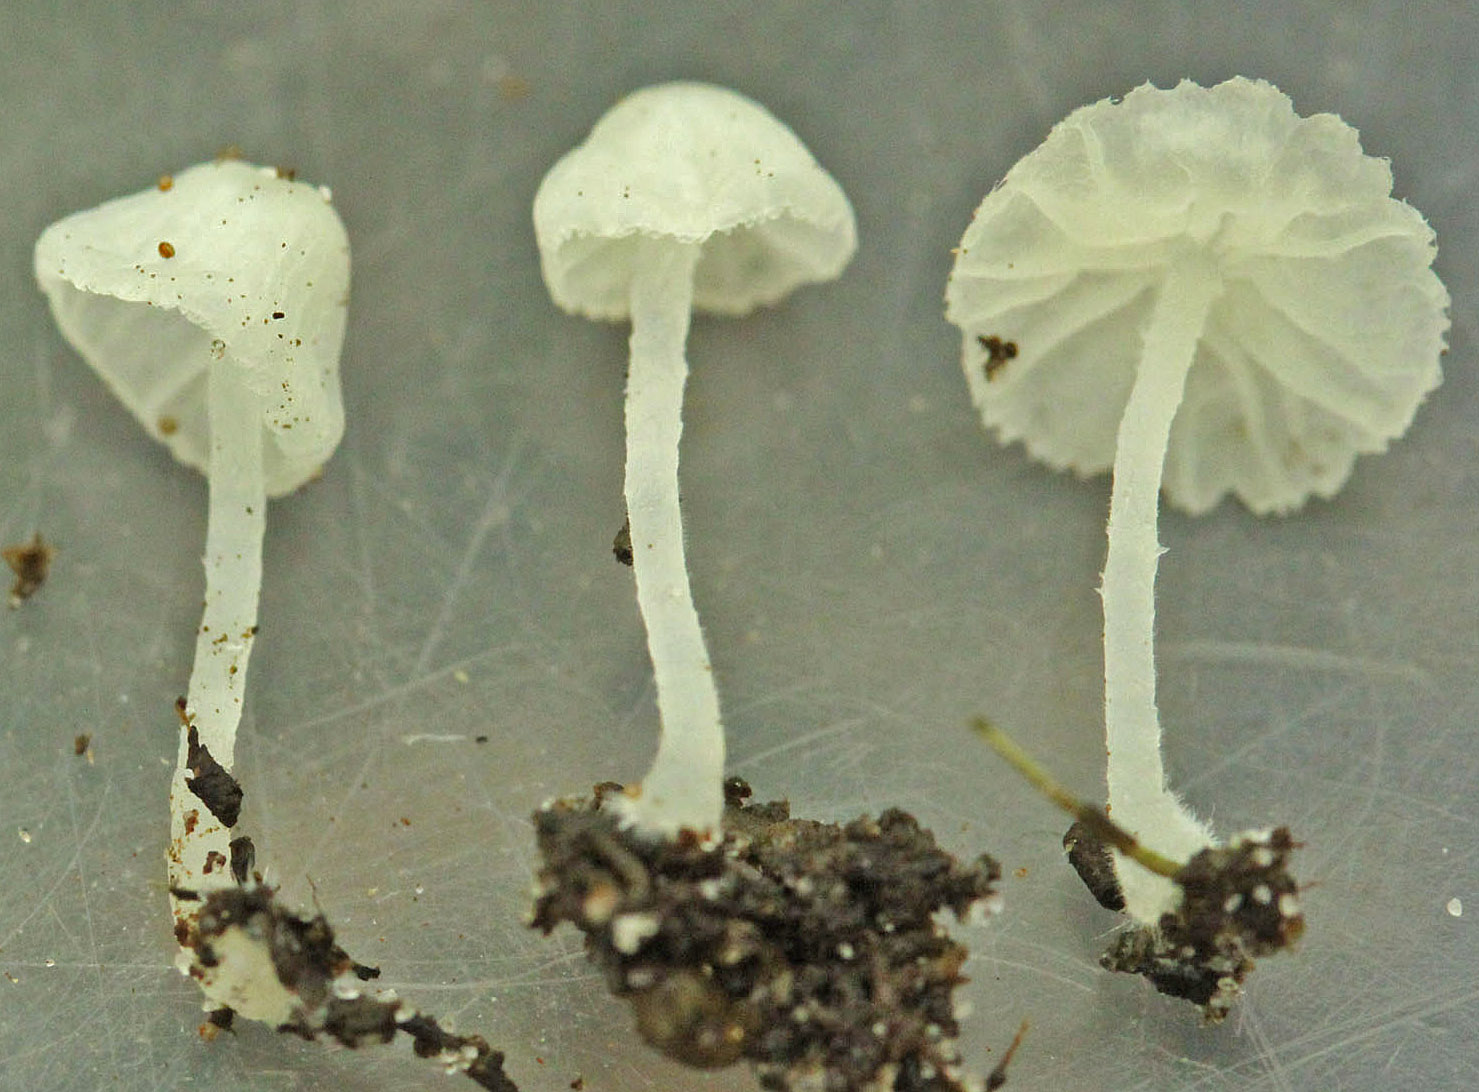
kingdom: Fungi
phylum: Basidiomycota
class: Agaricomycetes
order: Agaricales
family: Tricholomataceae
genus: Delicatula
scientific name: Delicatula integrella
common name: slørhuesvamp
